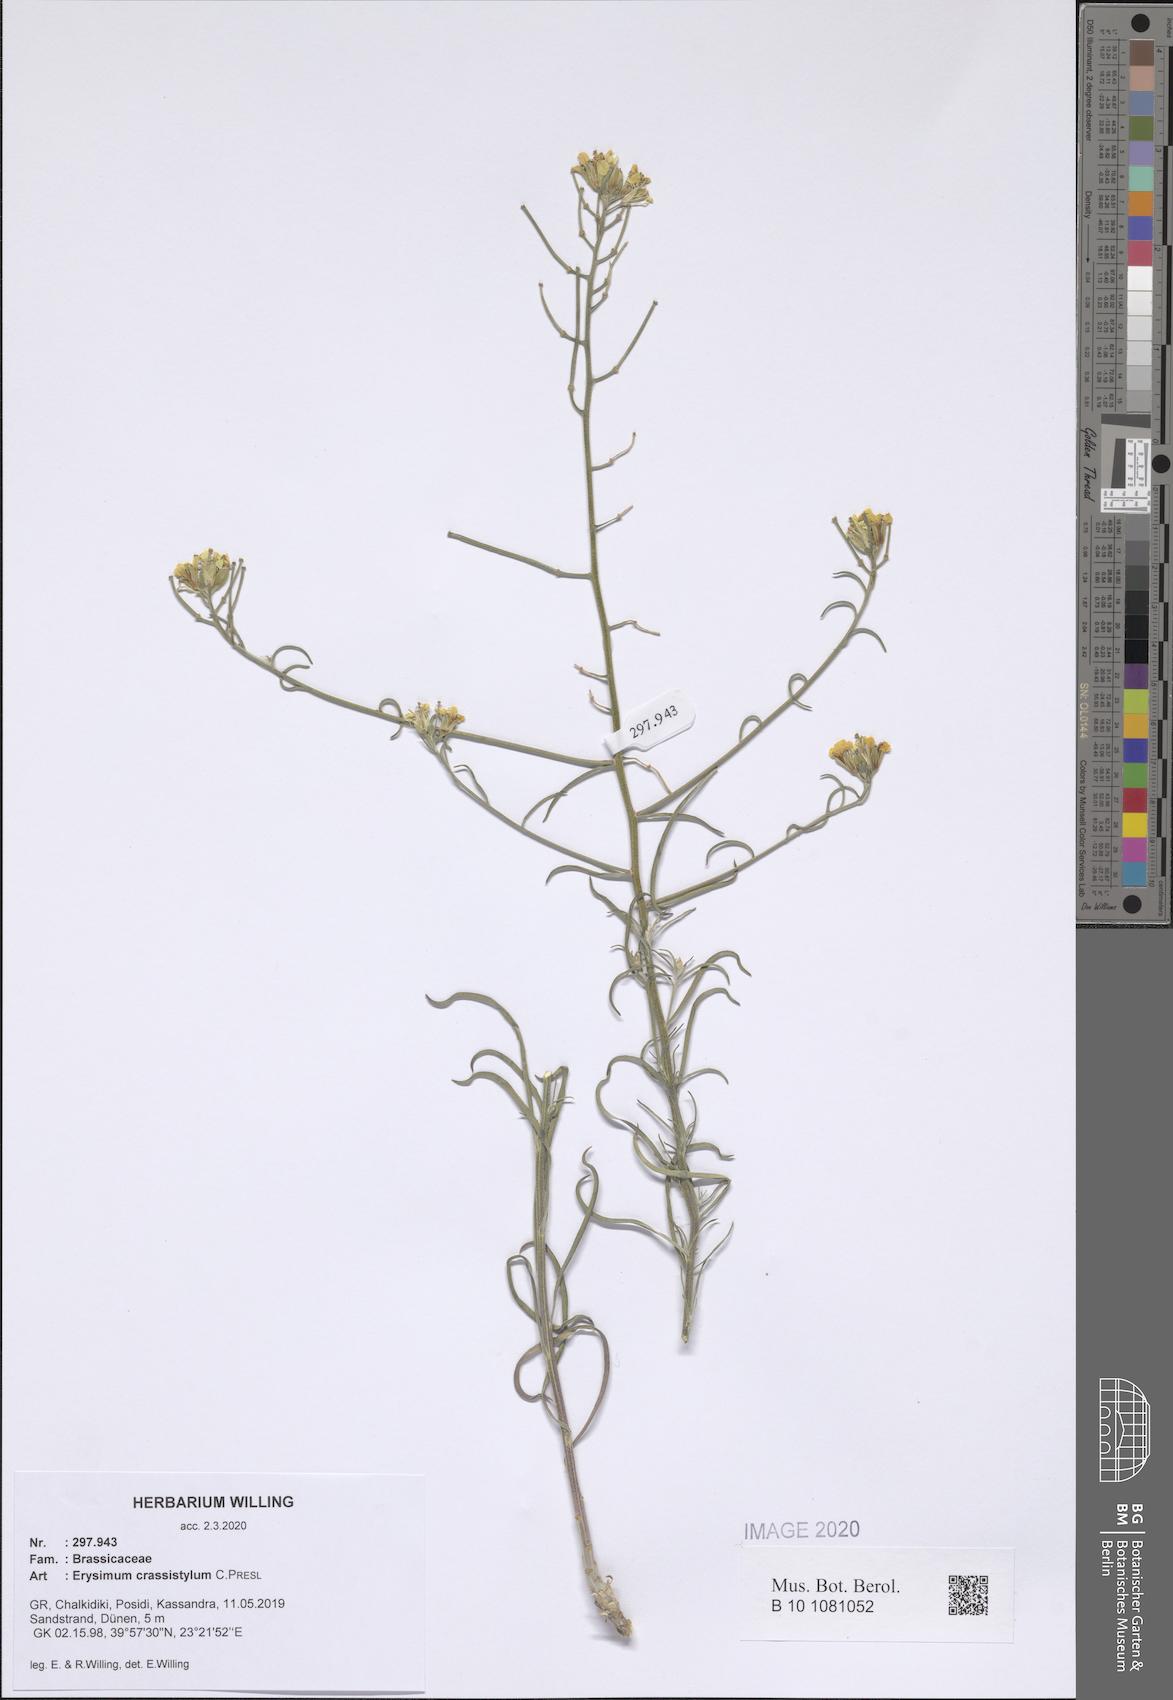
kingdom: Plantae
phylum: Tracheophyta
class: Magnoliopsida
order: Brassicales
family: Brassicaceae
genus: Erysimum
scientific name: Erysimum crassistylum
